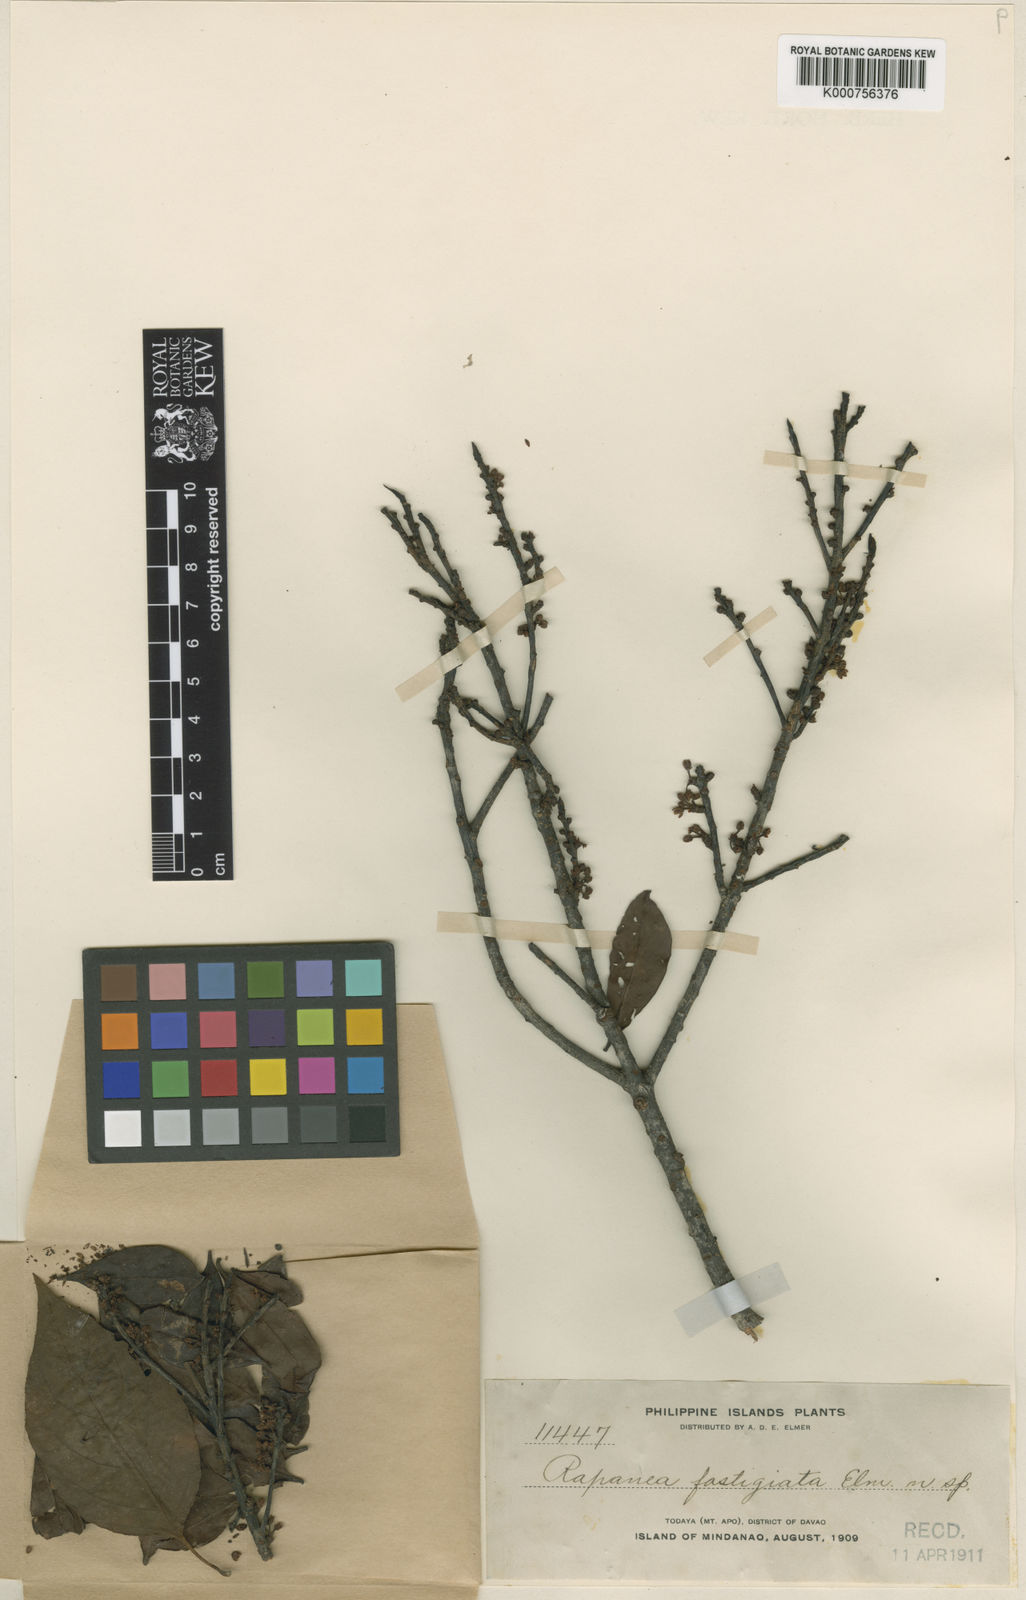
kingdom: Plantae
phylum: Tracheophyta
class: Magnoliopsida
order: Ericales
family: Primulaceae
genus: Myrsine
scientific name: Myrsine fastigiata
